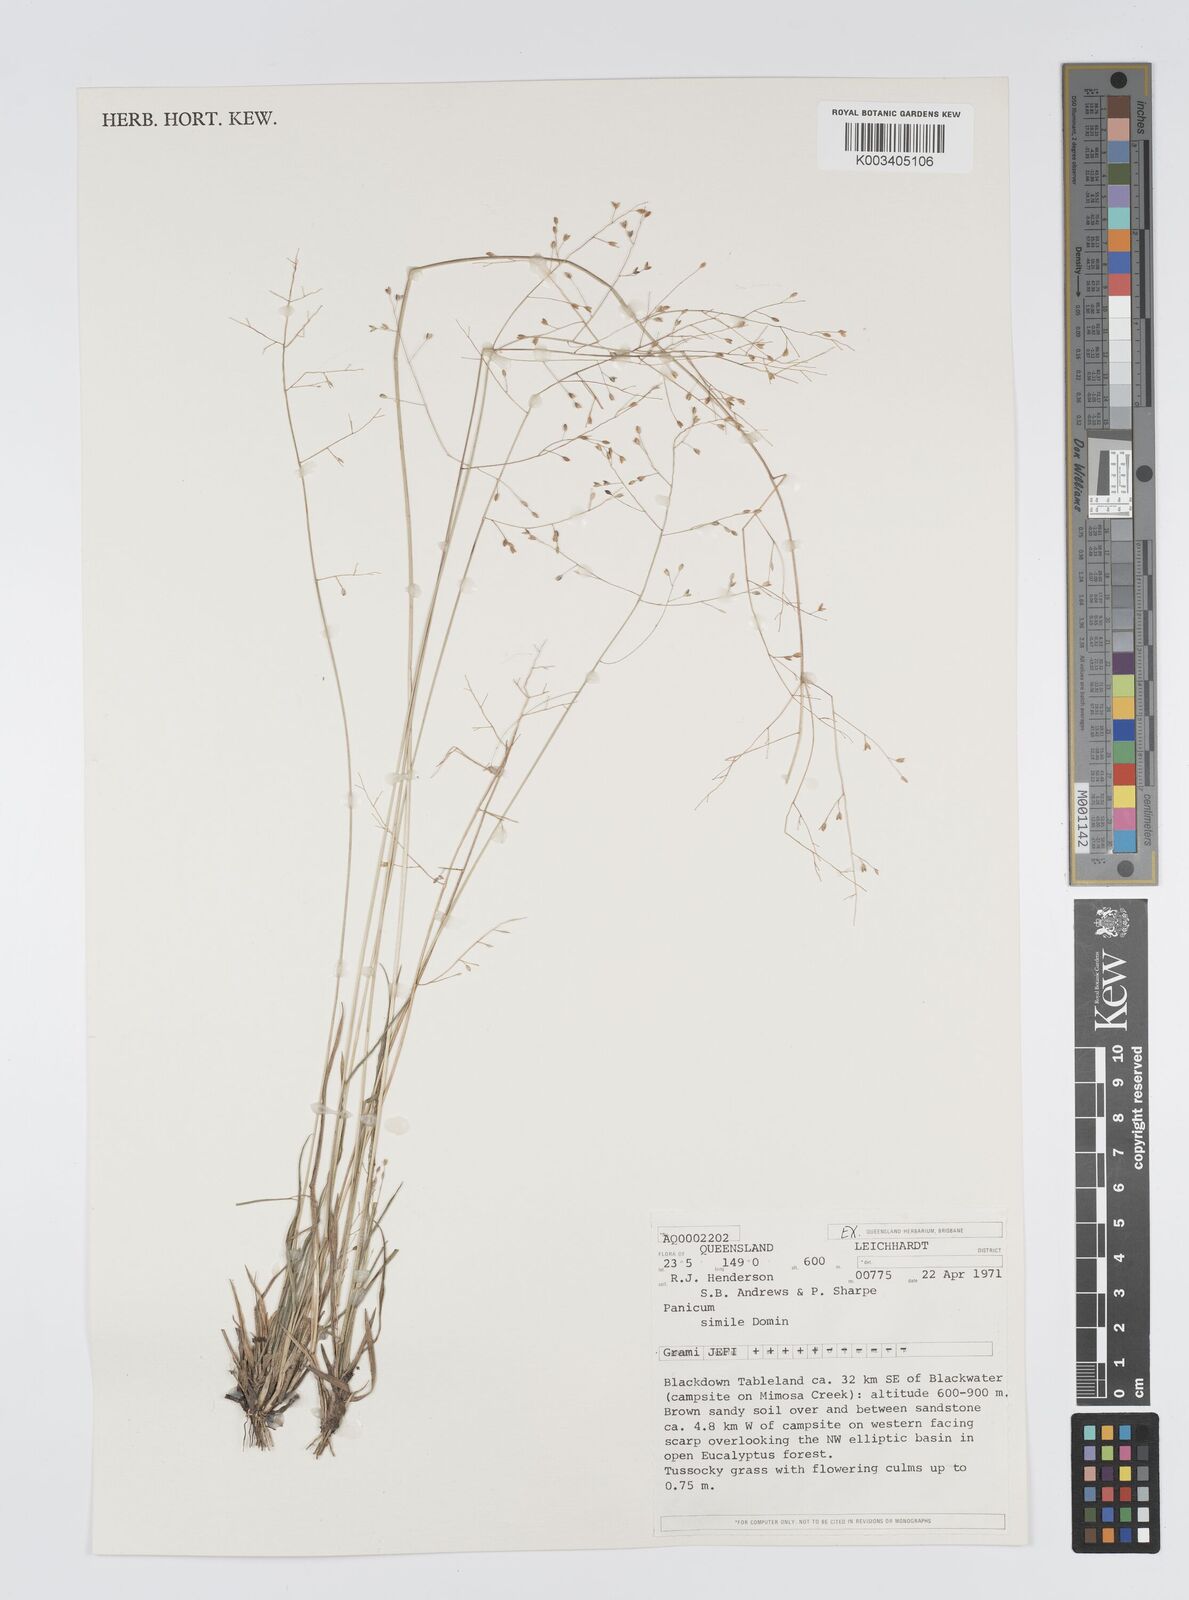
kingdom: Plantae
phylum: Tracheophyta
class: Liliopsida
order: Poales
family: Poaceae
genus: Panicum
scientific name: Panicum simile
